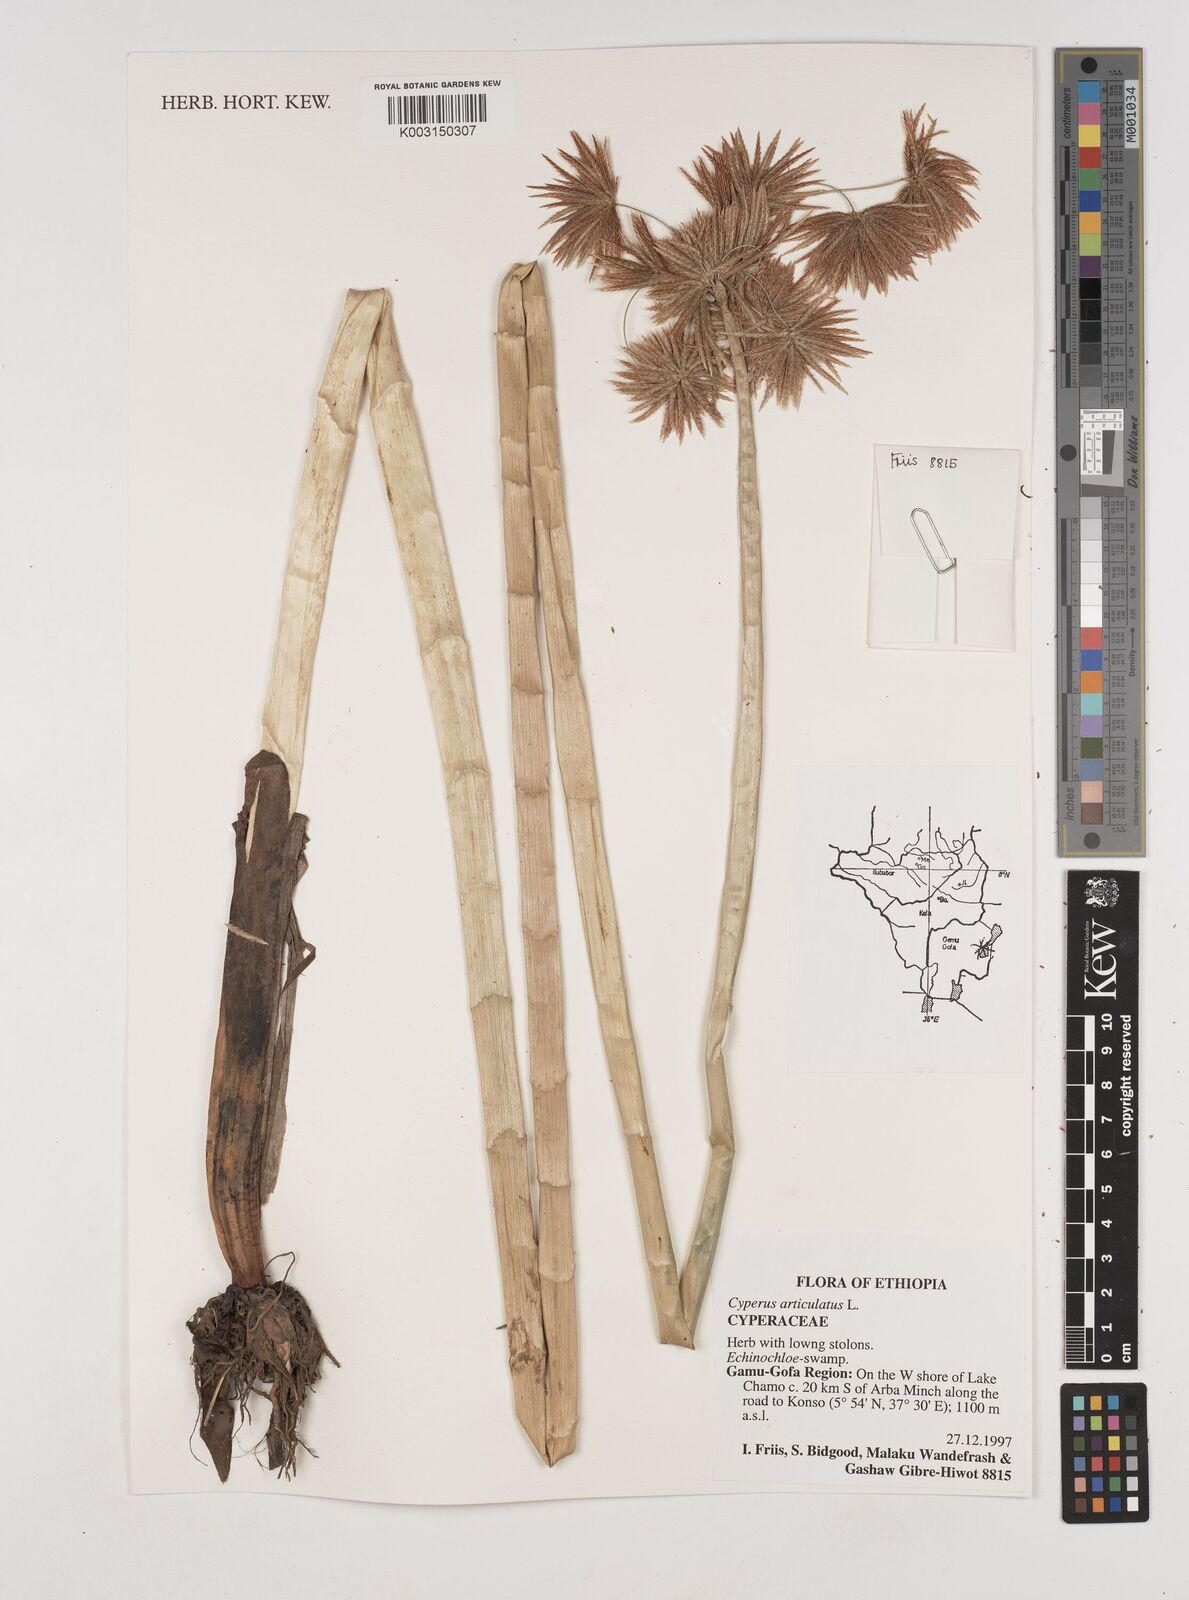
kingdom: Plantae
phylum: Tracheophyta
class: Liliopsida
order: Poales
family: Cyperaceae
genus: Cyperus
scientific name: Cyperus articulatus
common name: Jointed flatsedge
